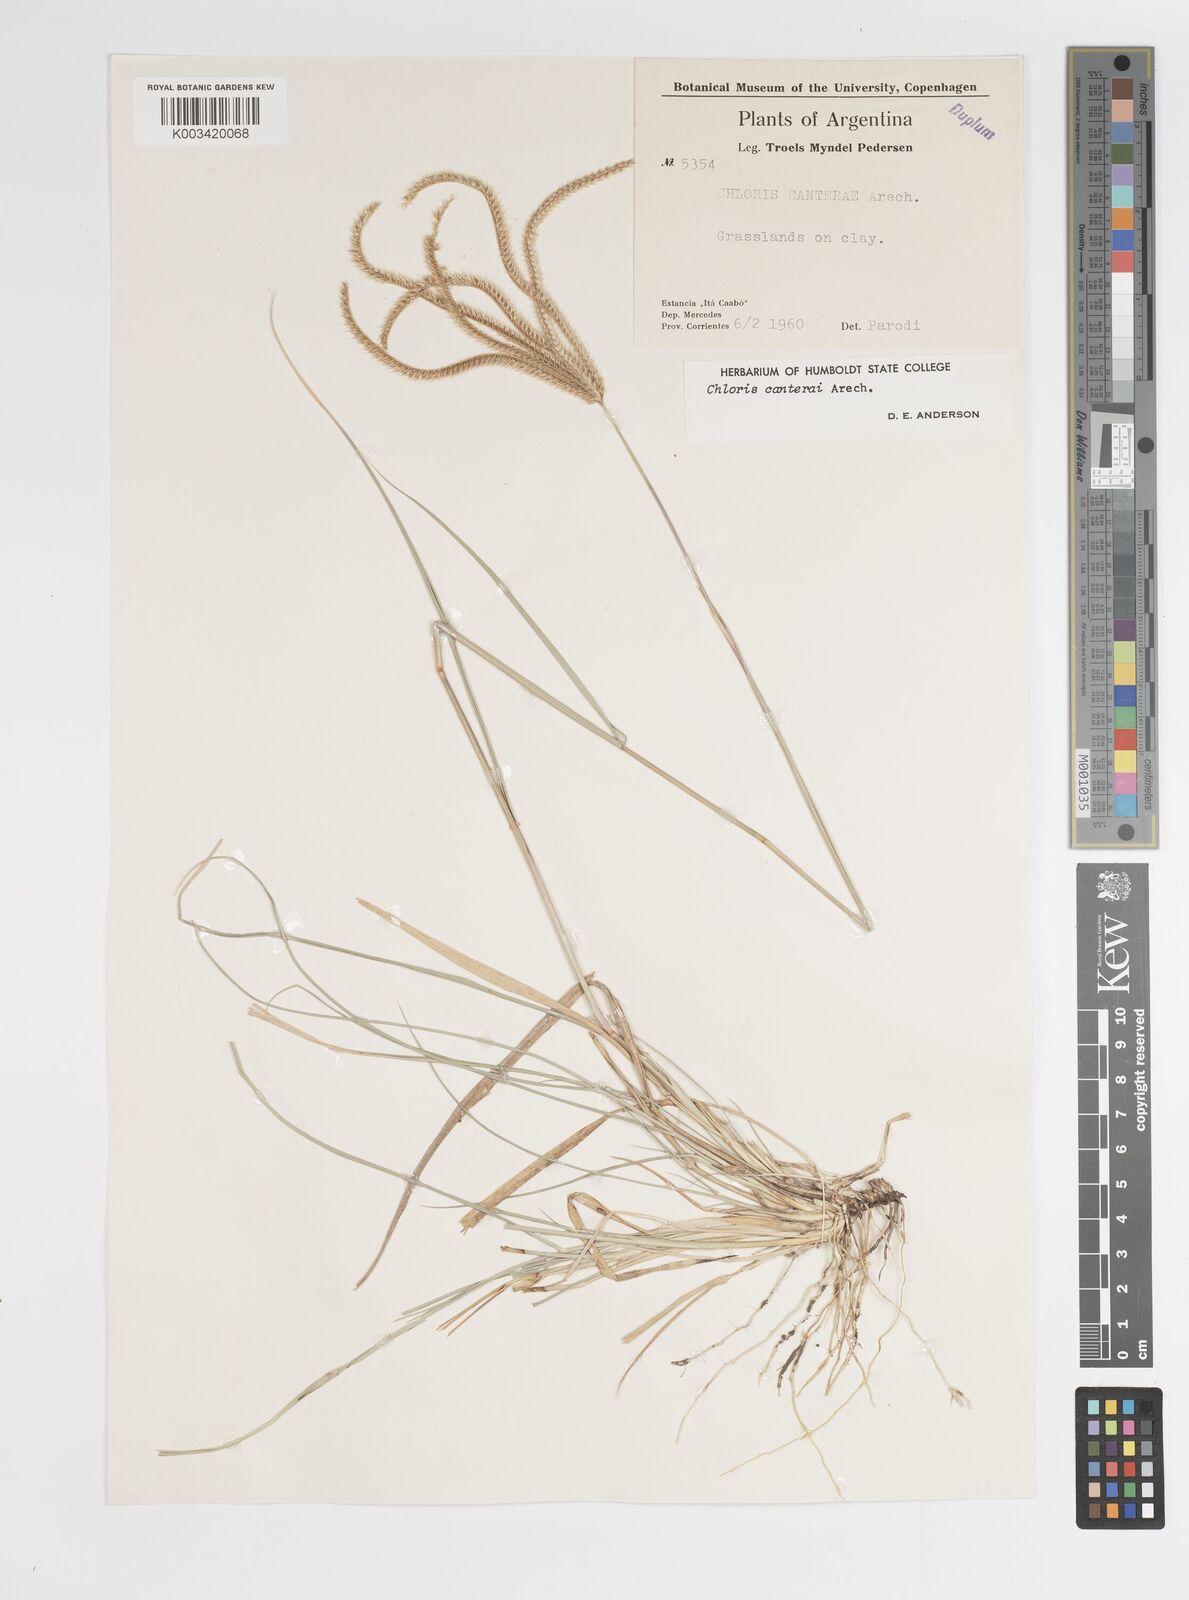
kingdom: Plantae
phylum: Tracheophyta
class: Liliopsida
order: Poales
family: Poaceae
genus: Stapfochloa
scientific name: Stapfochloa canterae
